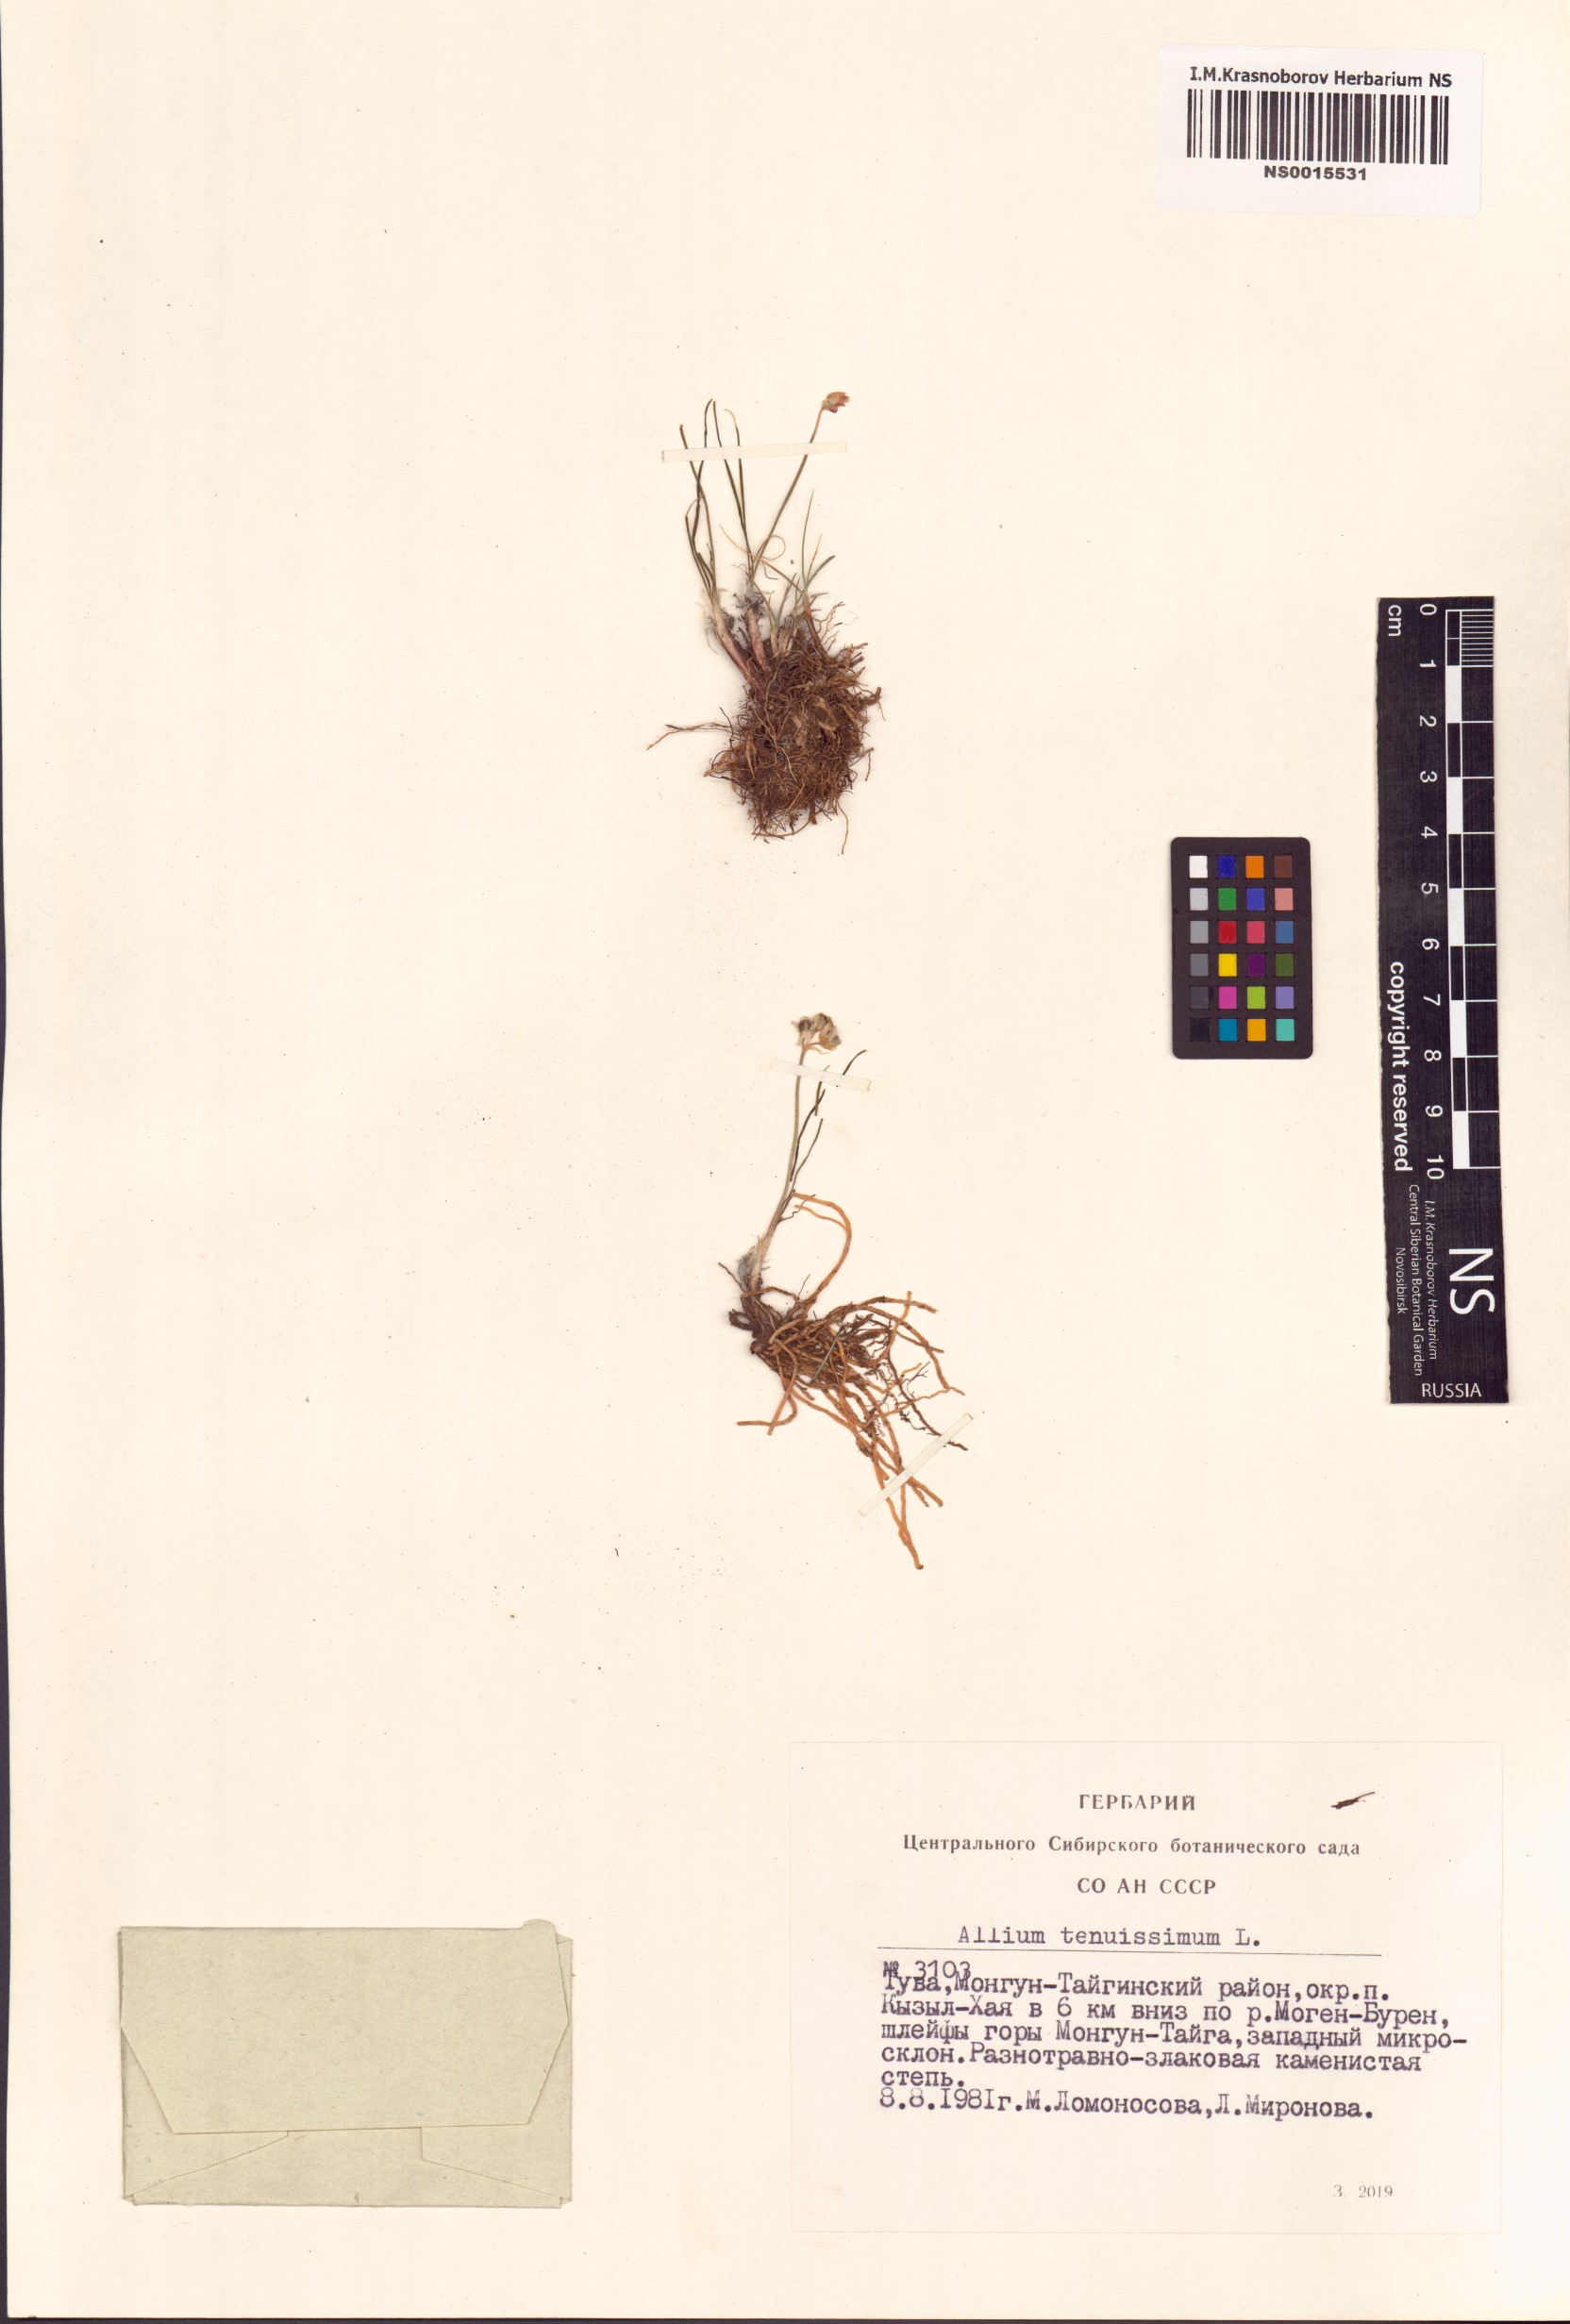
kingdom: Plantae
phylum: Tracheophyta
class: Liliopsida
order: Asparagales
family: Amaryllidaceae
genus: Allium
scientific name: Allium tenuissimum
